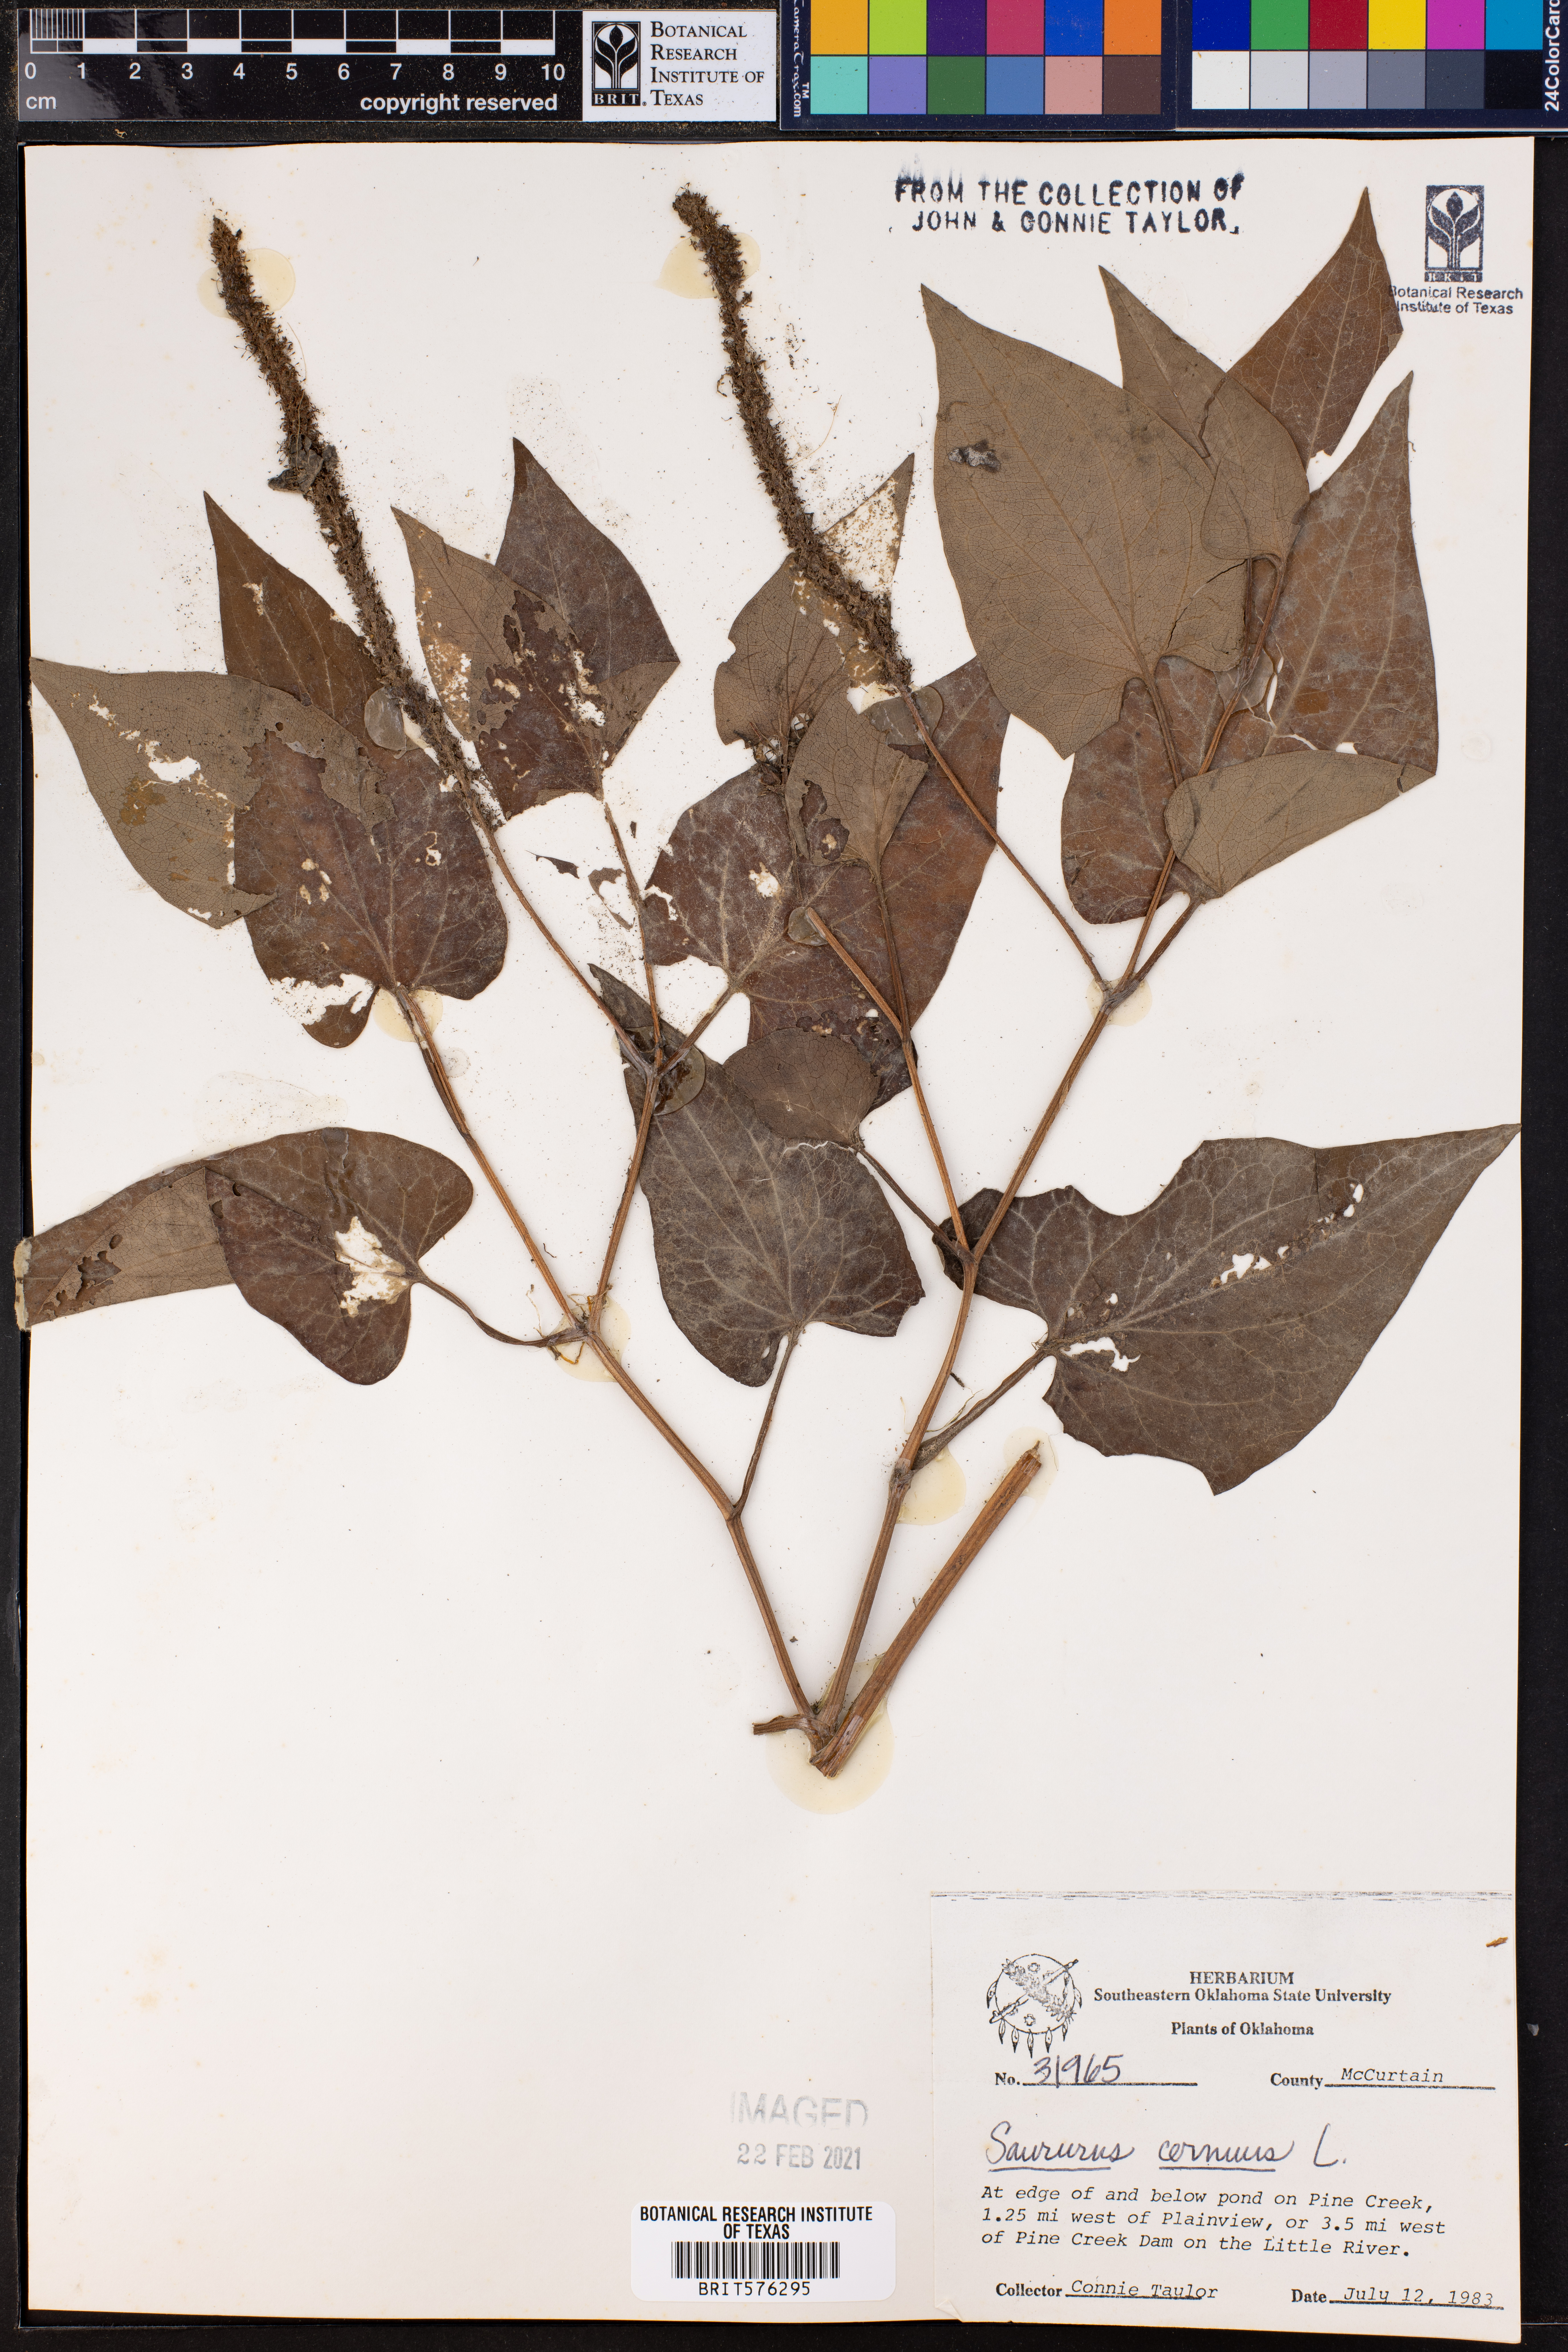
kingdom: Plantae
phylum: Tracheophyta
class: Magnoliopsida
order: Piperales
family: Saururaceae
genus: Saururus
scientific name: Saururus cernuus
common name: Lizard's-tail
